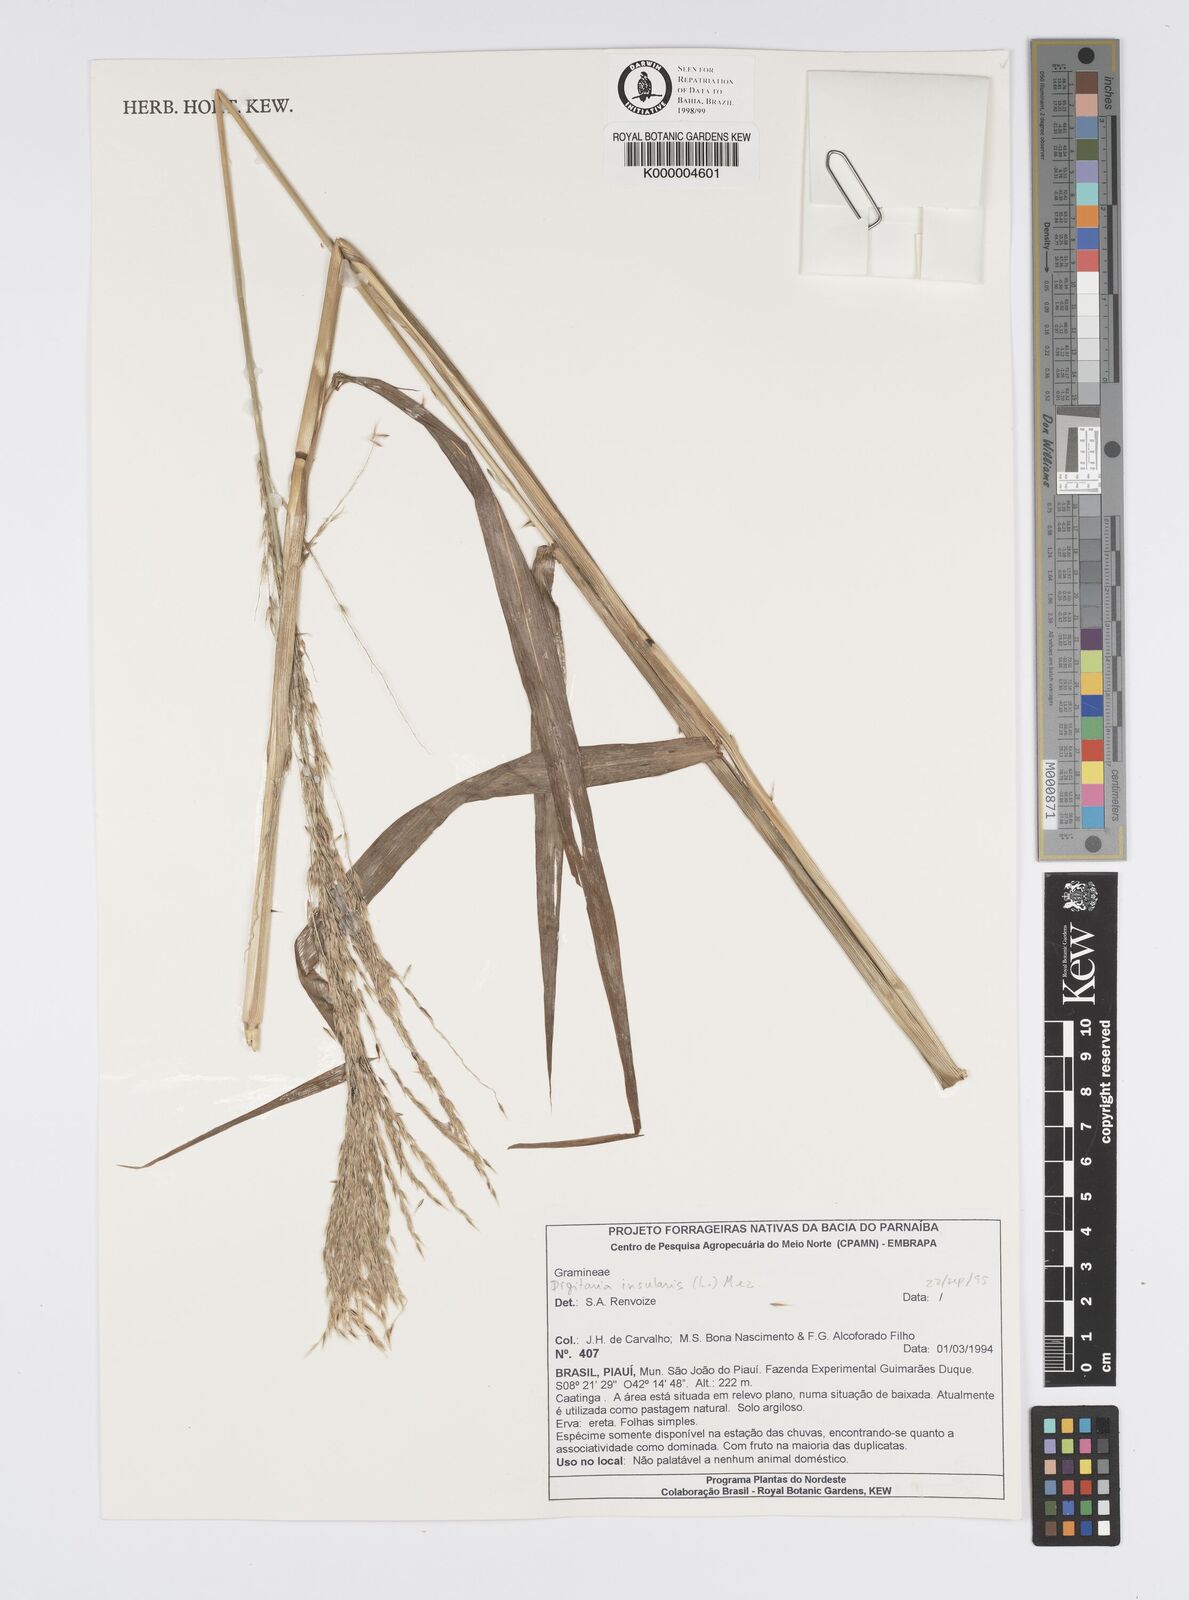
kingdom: Plantae
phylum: Tracheophyta
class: Liliopsida
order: Poales
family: Poaceae
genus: Digitaria
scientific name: Digitaria
